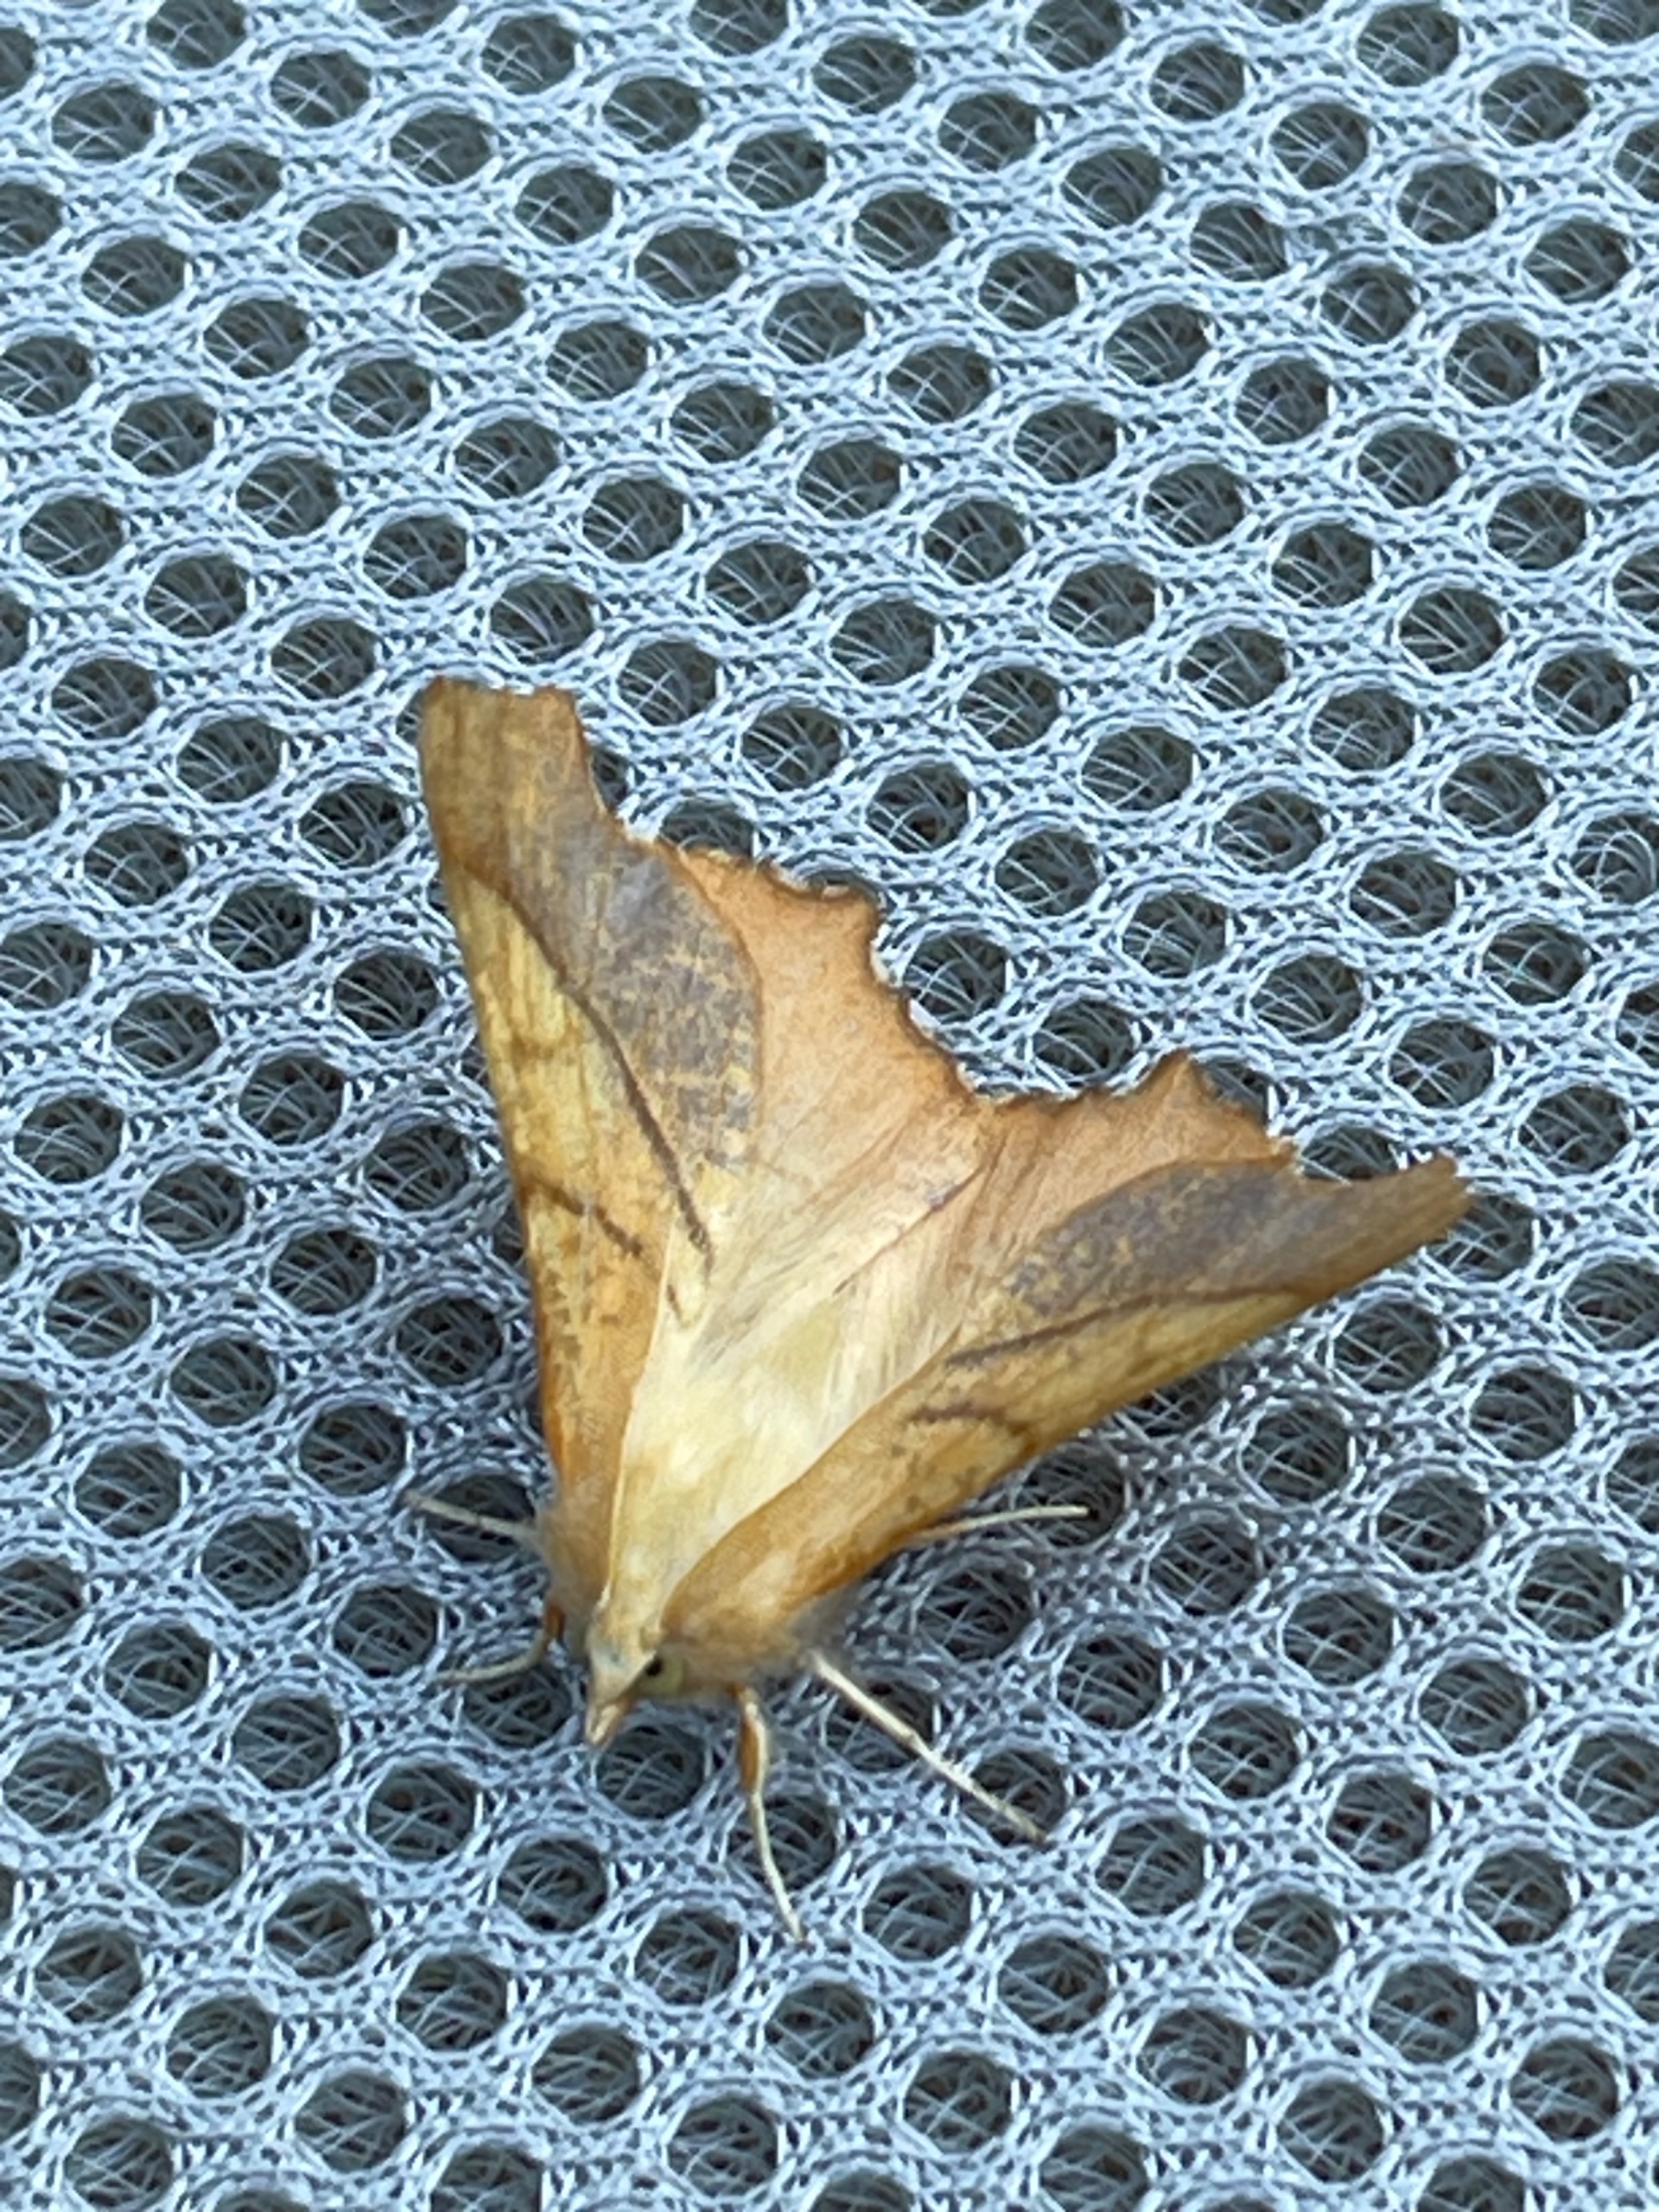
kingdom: Animalia
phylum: Arthropoda
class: Insecta
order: Lepidoptera
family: Geometridae
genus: Ennomos
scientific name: Ennomos fuscantaria
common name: Asketandmåler
